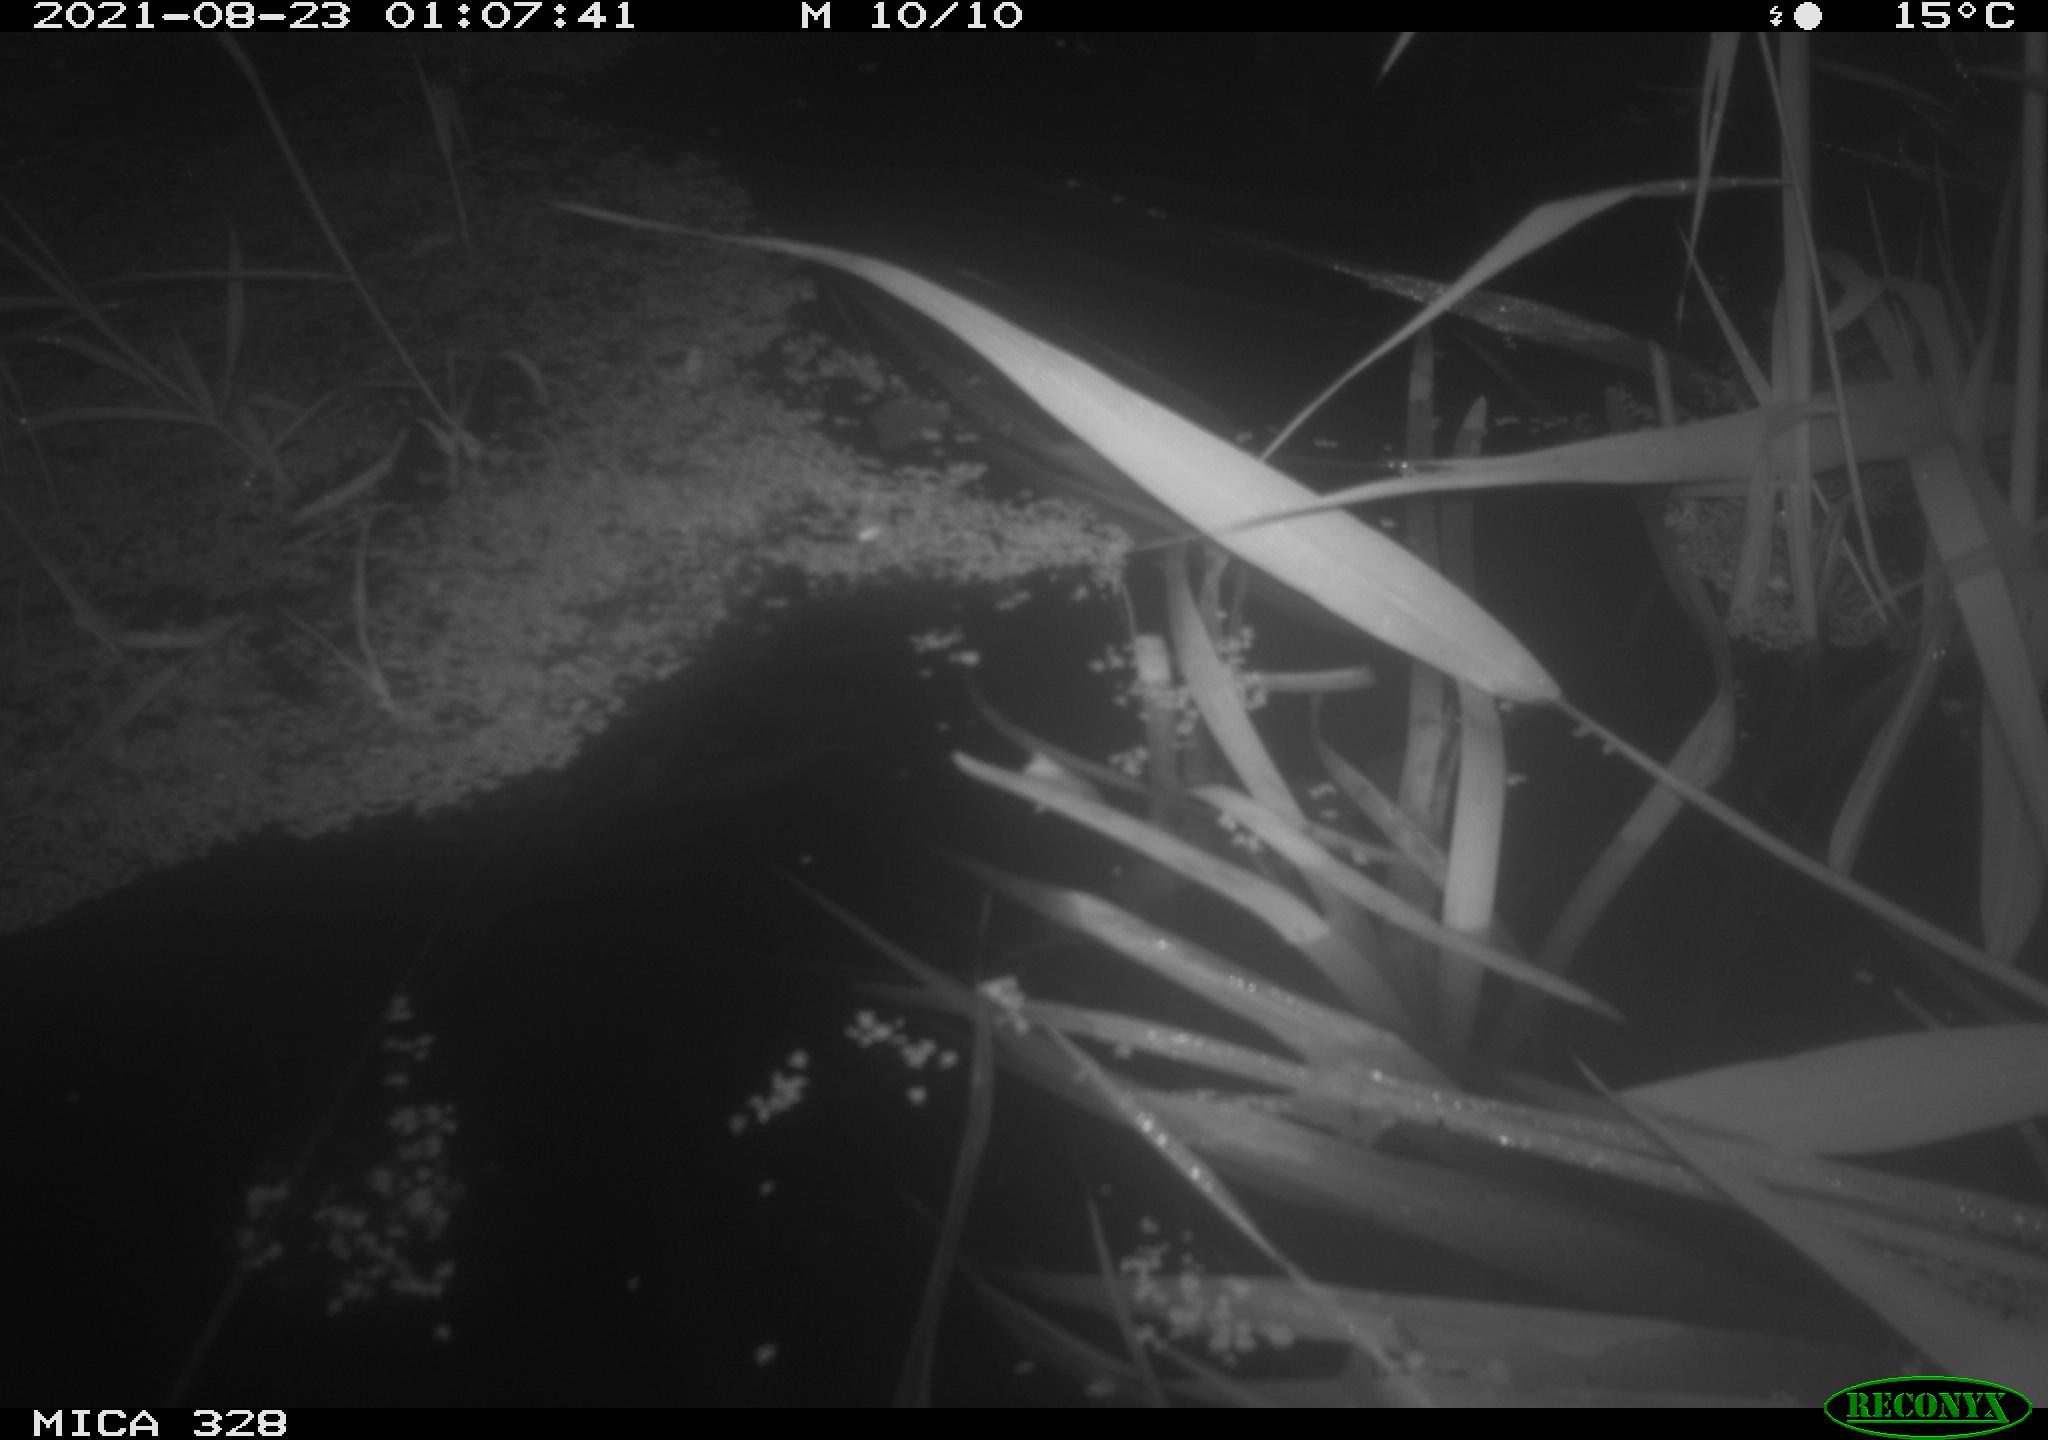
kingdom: Animalia
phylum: Chordata
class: Mammalia
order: Rodentia
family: Cricetidae
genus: Ondatra
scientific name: Ondatra zibethicus
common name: Muskrat
